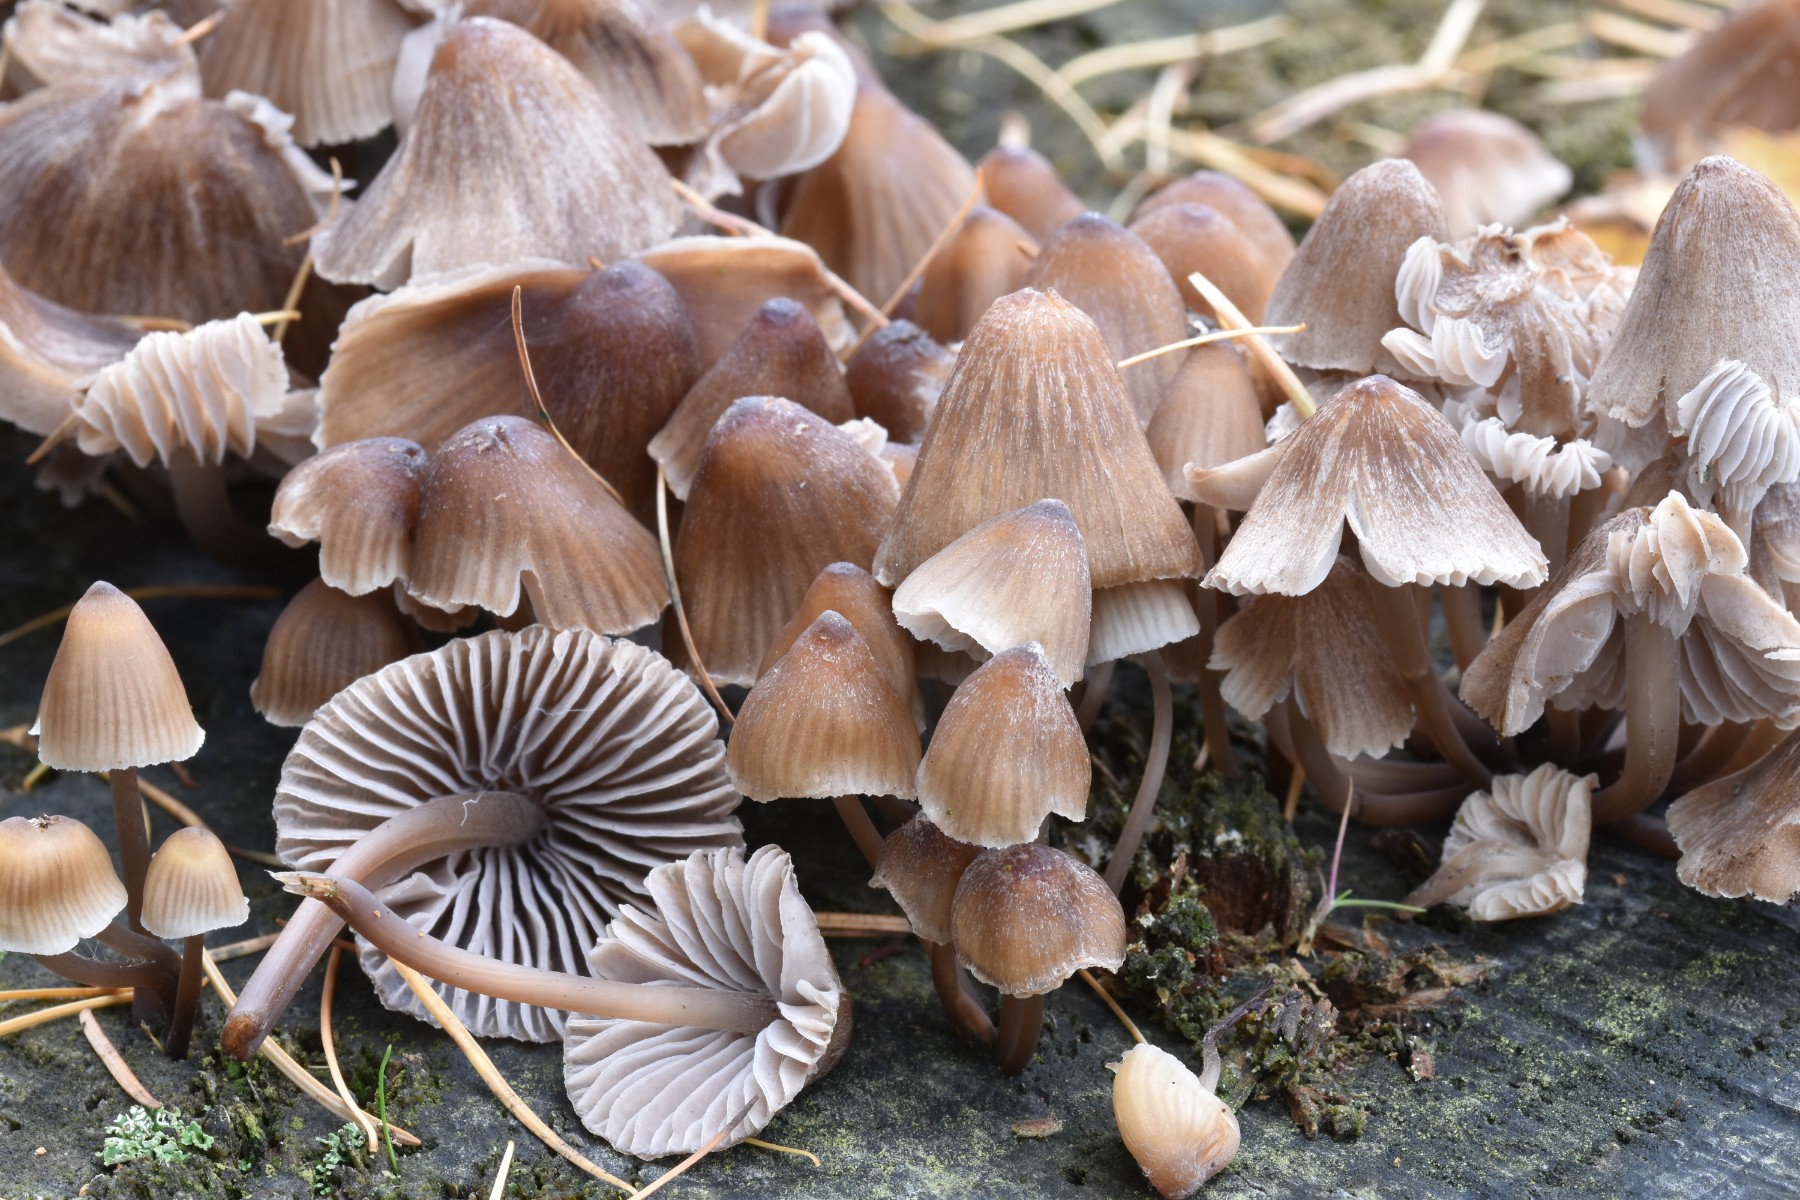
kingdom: Fungi
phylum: Basidiomycota
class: Agaricomycetes
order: Agaricales
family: Mycenaceae
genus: Mycena
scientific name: Mycena inclinata
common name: nikkende huesvamp
